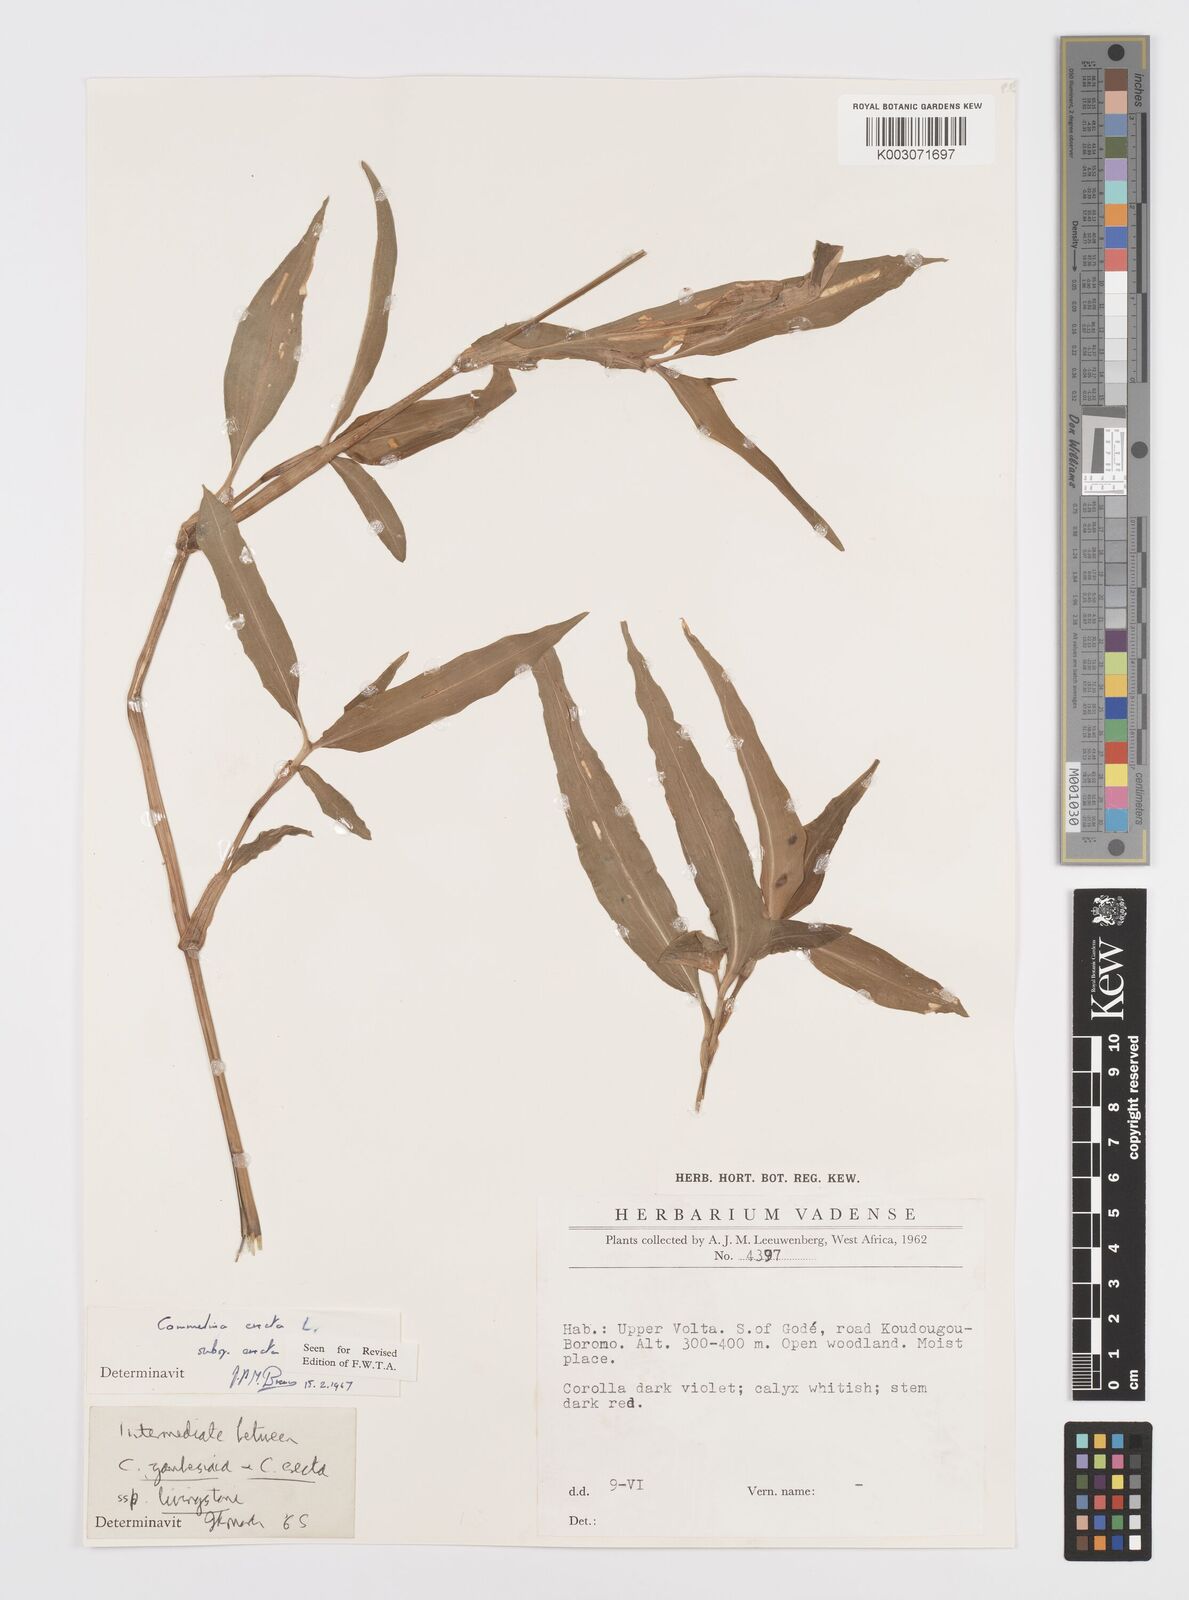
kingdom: Plantae
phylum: Tracheophyta
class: Liliopsida
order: Commelinales
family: Commelinaceae
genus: Commelina
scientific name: Commelina erecta
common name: Blousel blommetjie
